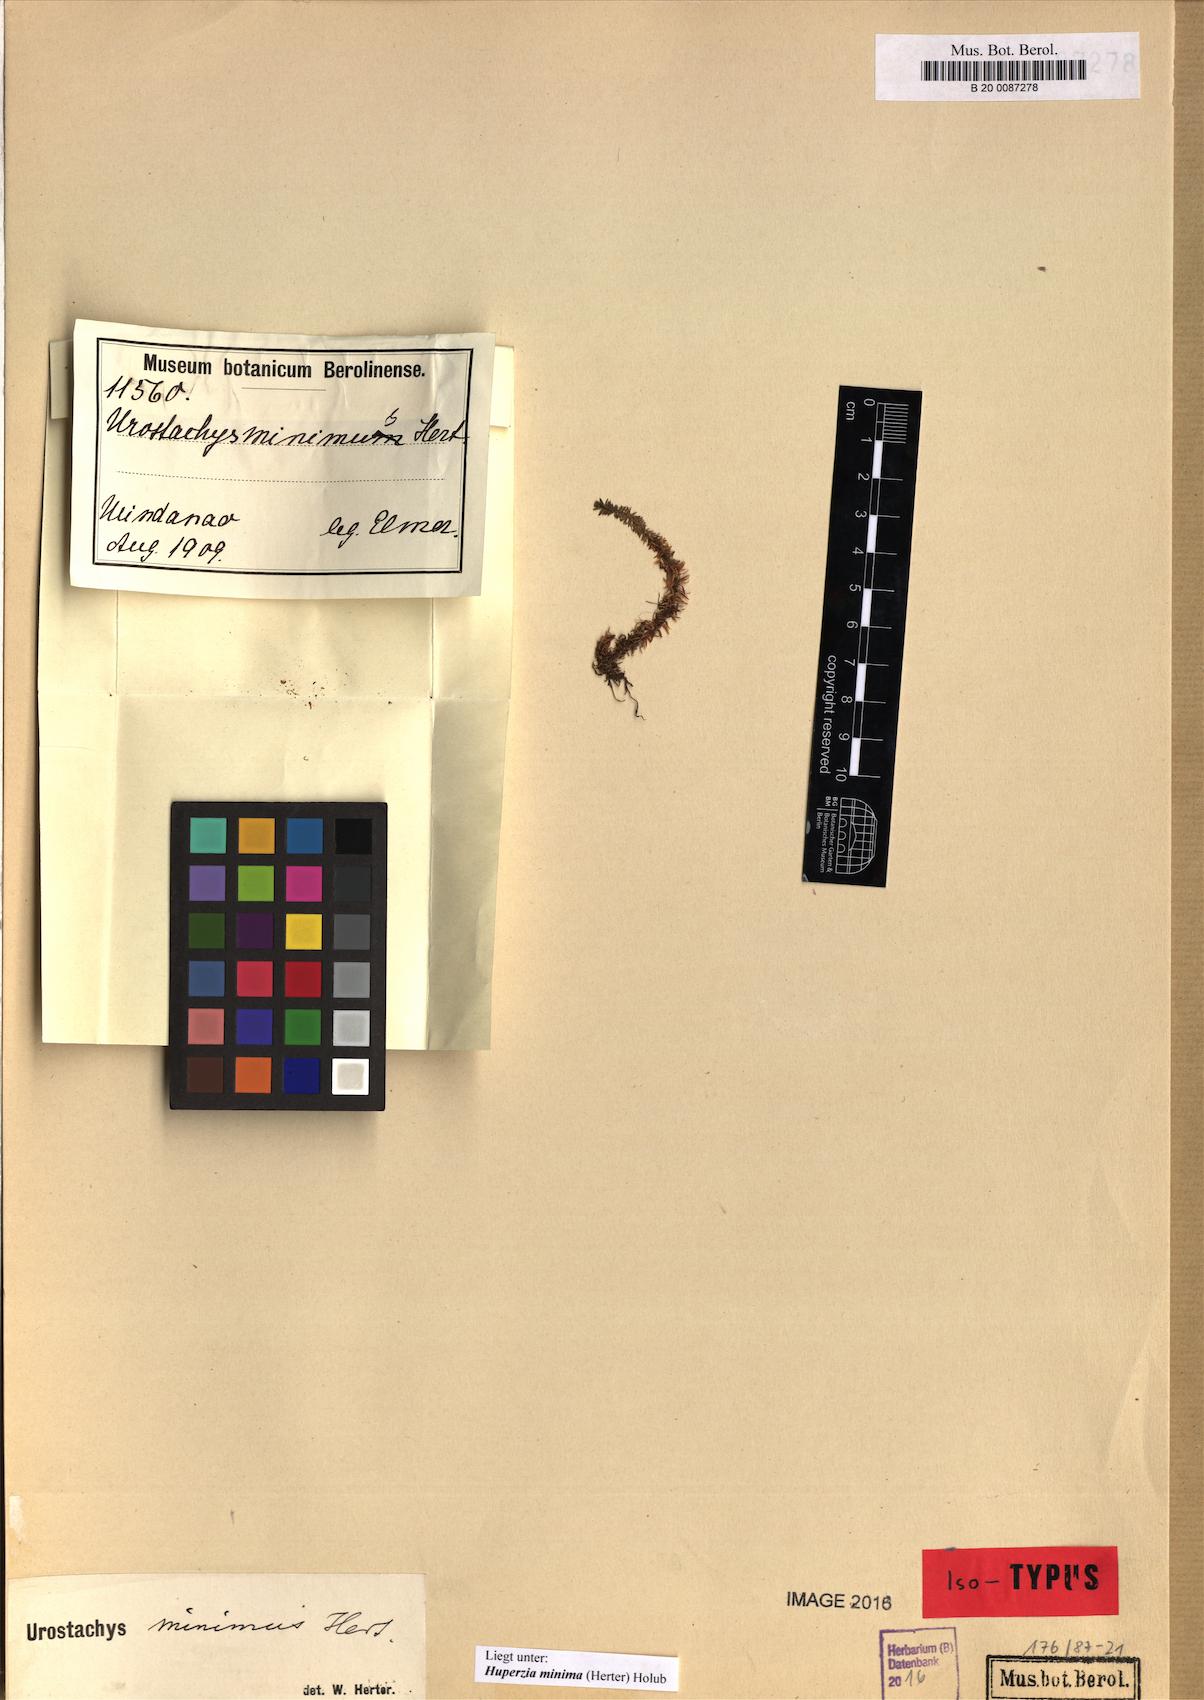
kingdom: Plantae
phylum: Tracheophyta
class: Lycopodiopsida
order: Lycopodiales
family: Lycopodiaceae
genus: Huperzia
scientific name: Huperzia minima
